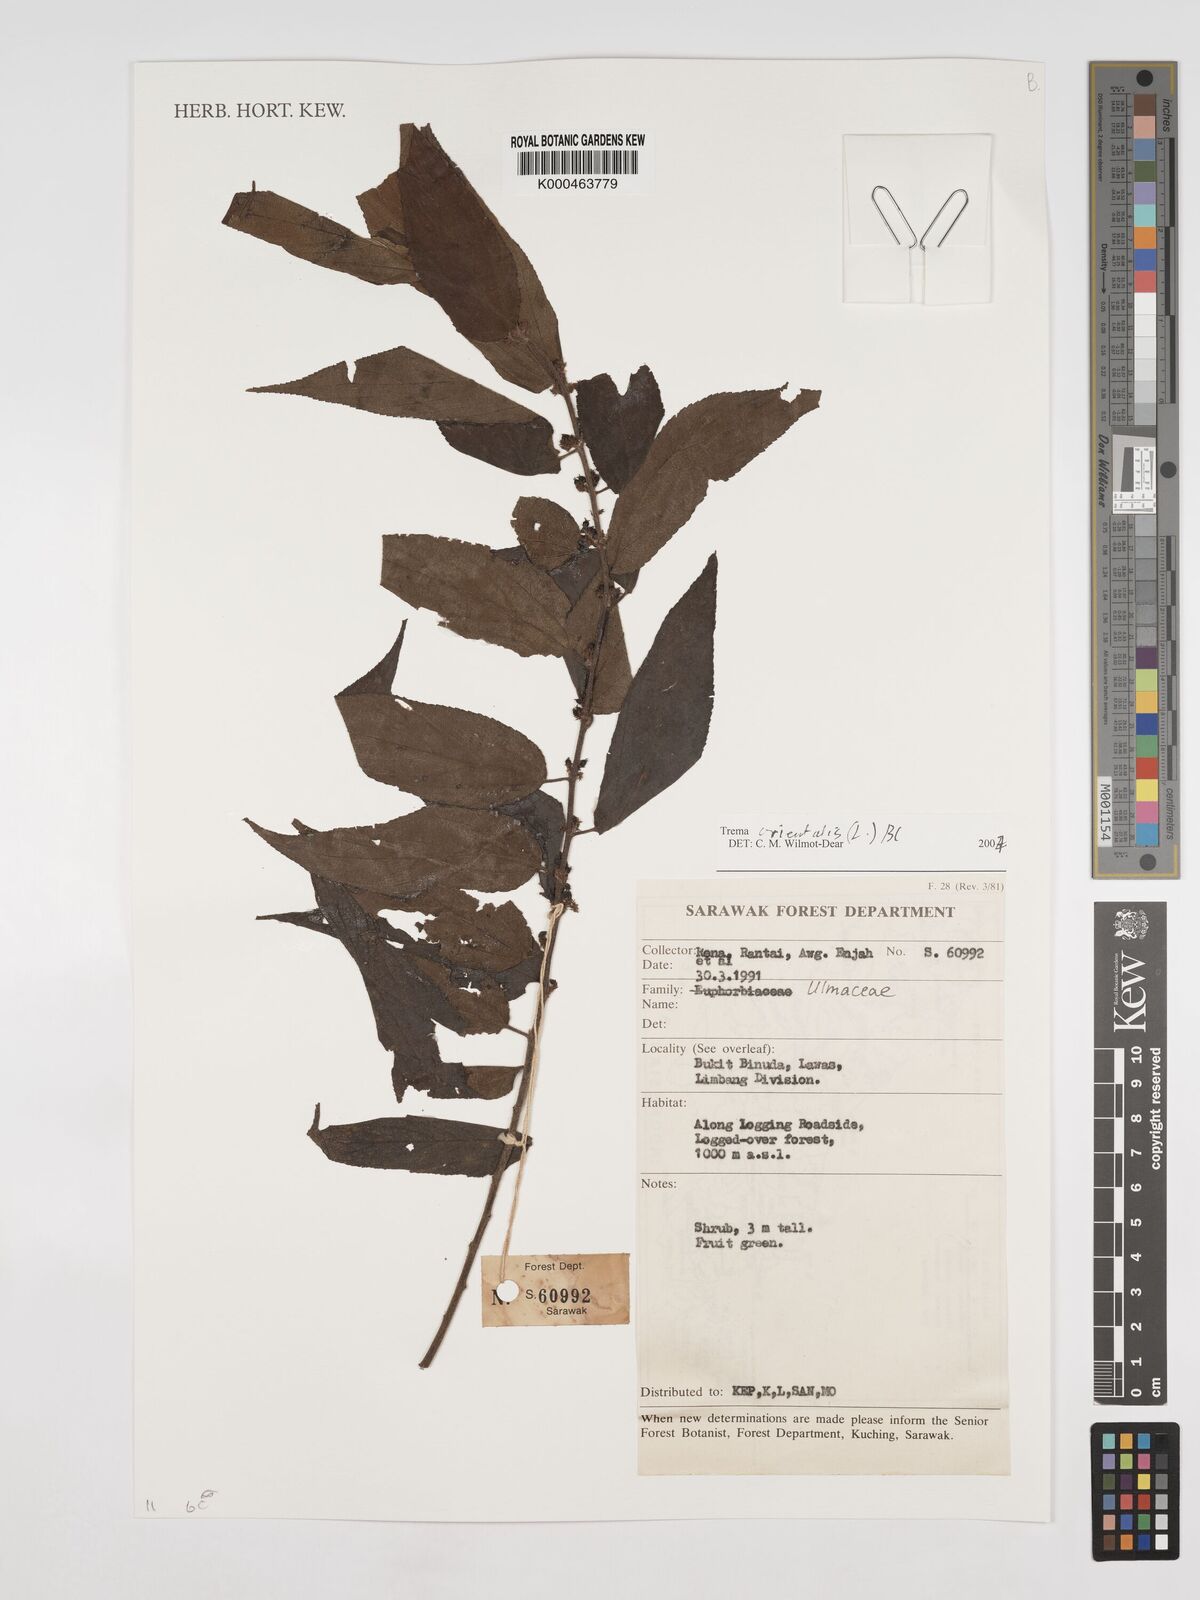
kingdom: Plantae
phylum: Tracheophyta
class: Magnoliopsida
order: Rosales
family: Cannabaceae
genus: Trema
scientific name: Trema
